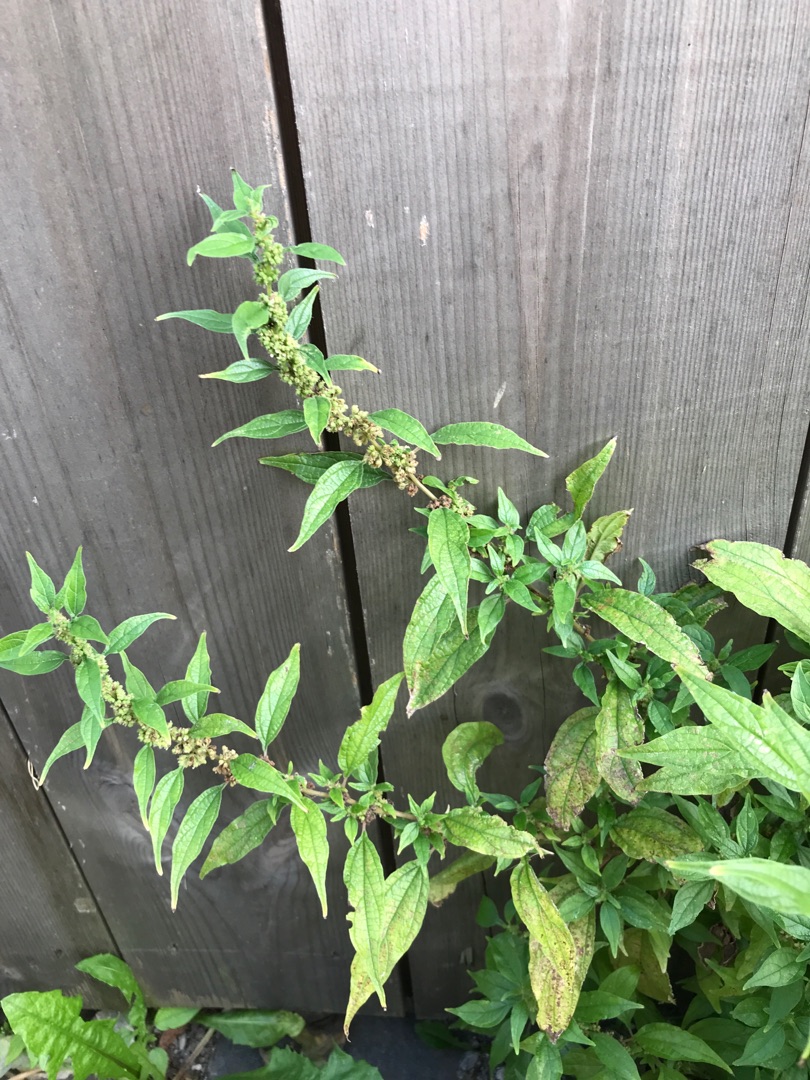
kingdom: Plantae
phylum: Tracheophyta
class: Magnoliopsida
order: Rosales
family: Urticaceae
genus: Parietaria
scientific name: Parietaria officinalis
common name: Almindelig springknap
